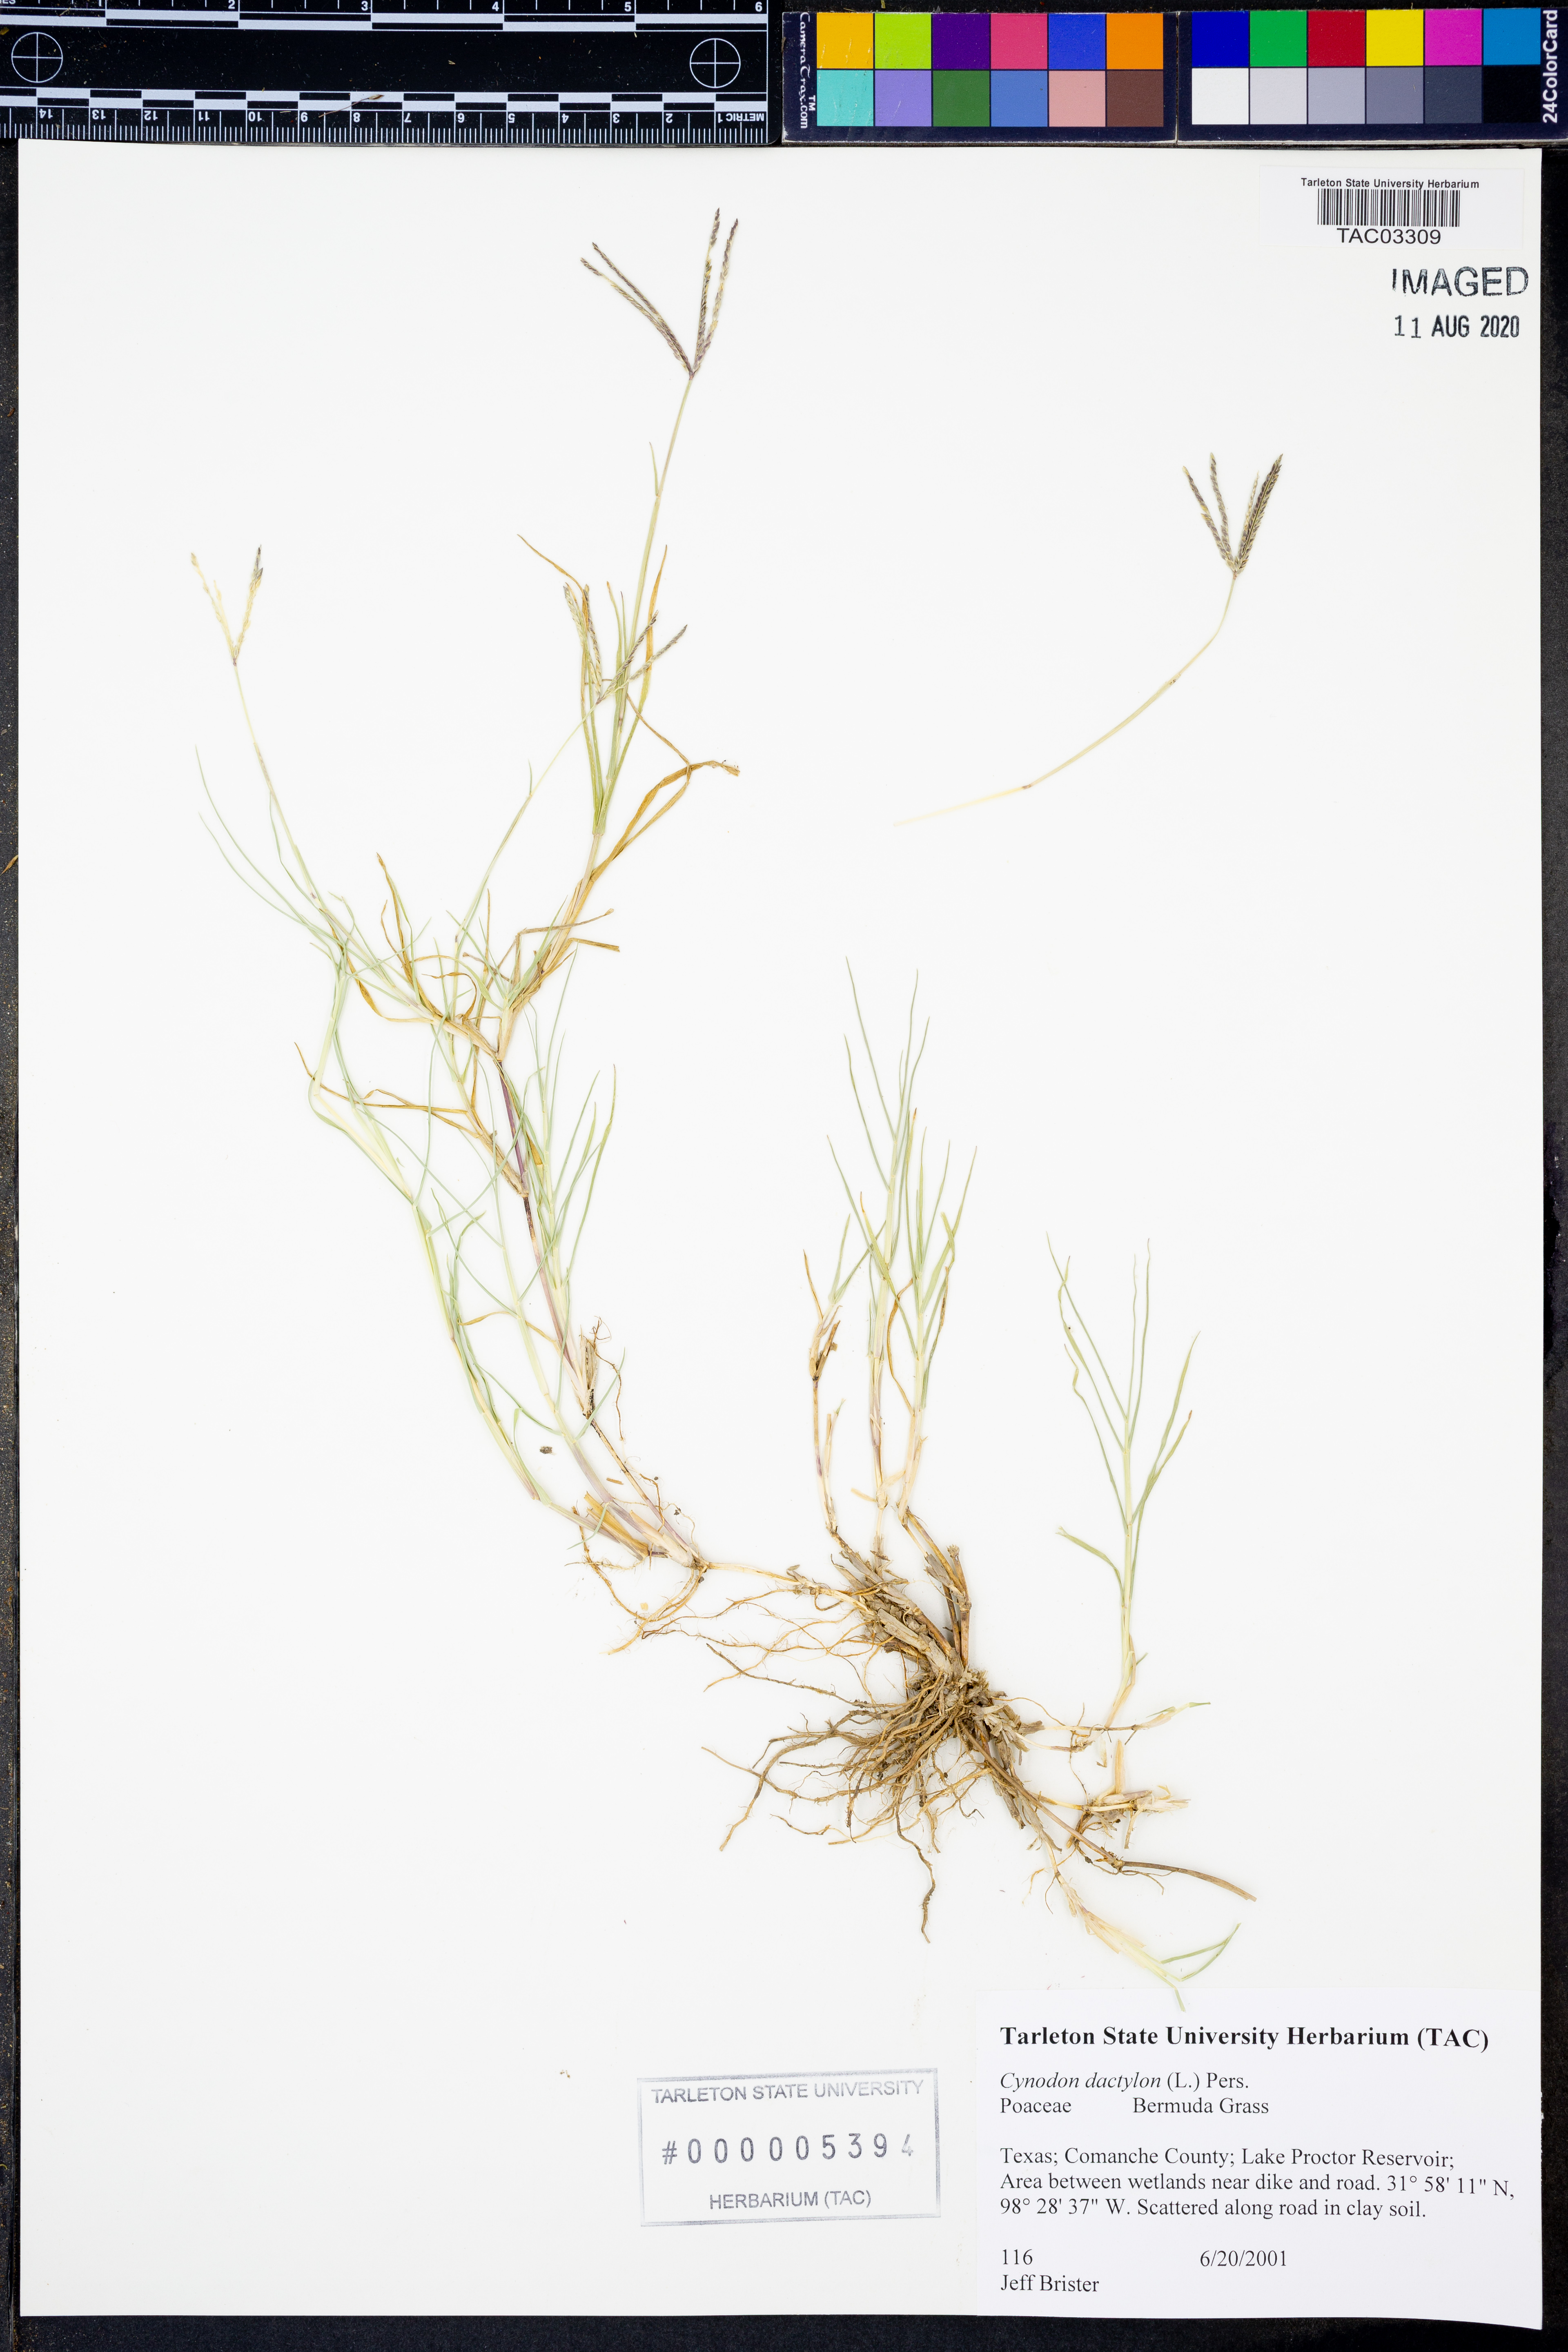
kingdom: Plantae
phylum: Tracheophyta
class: Liliopsida
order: Poales
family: Poaceae
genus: Cynodon
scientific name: Cynodon dactylon
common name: Bermuda grass
